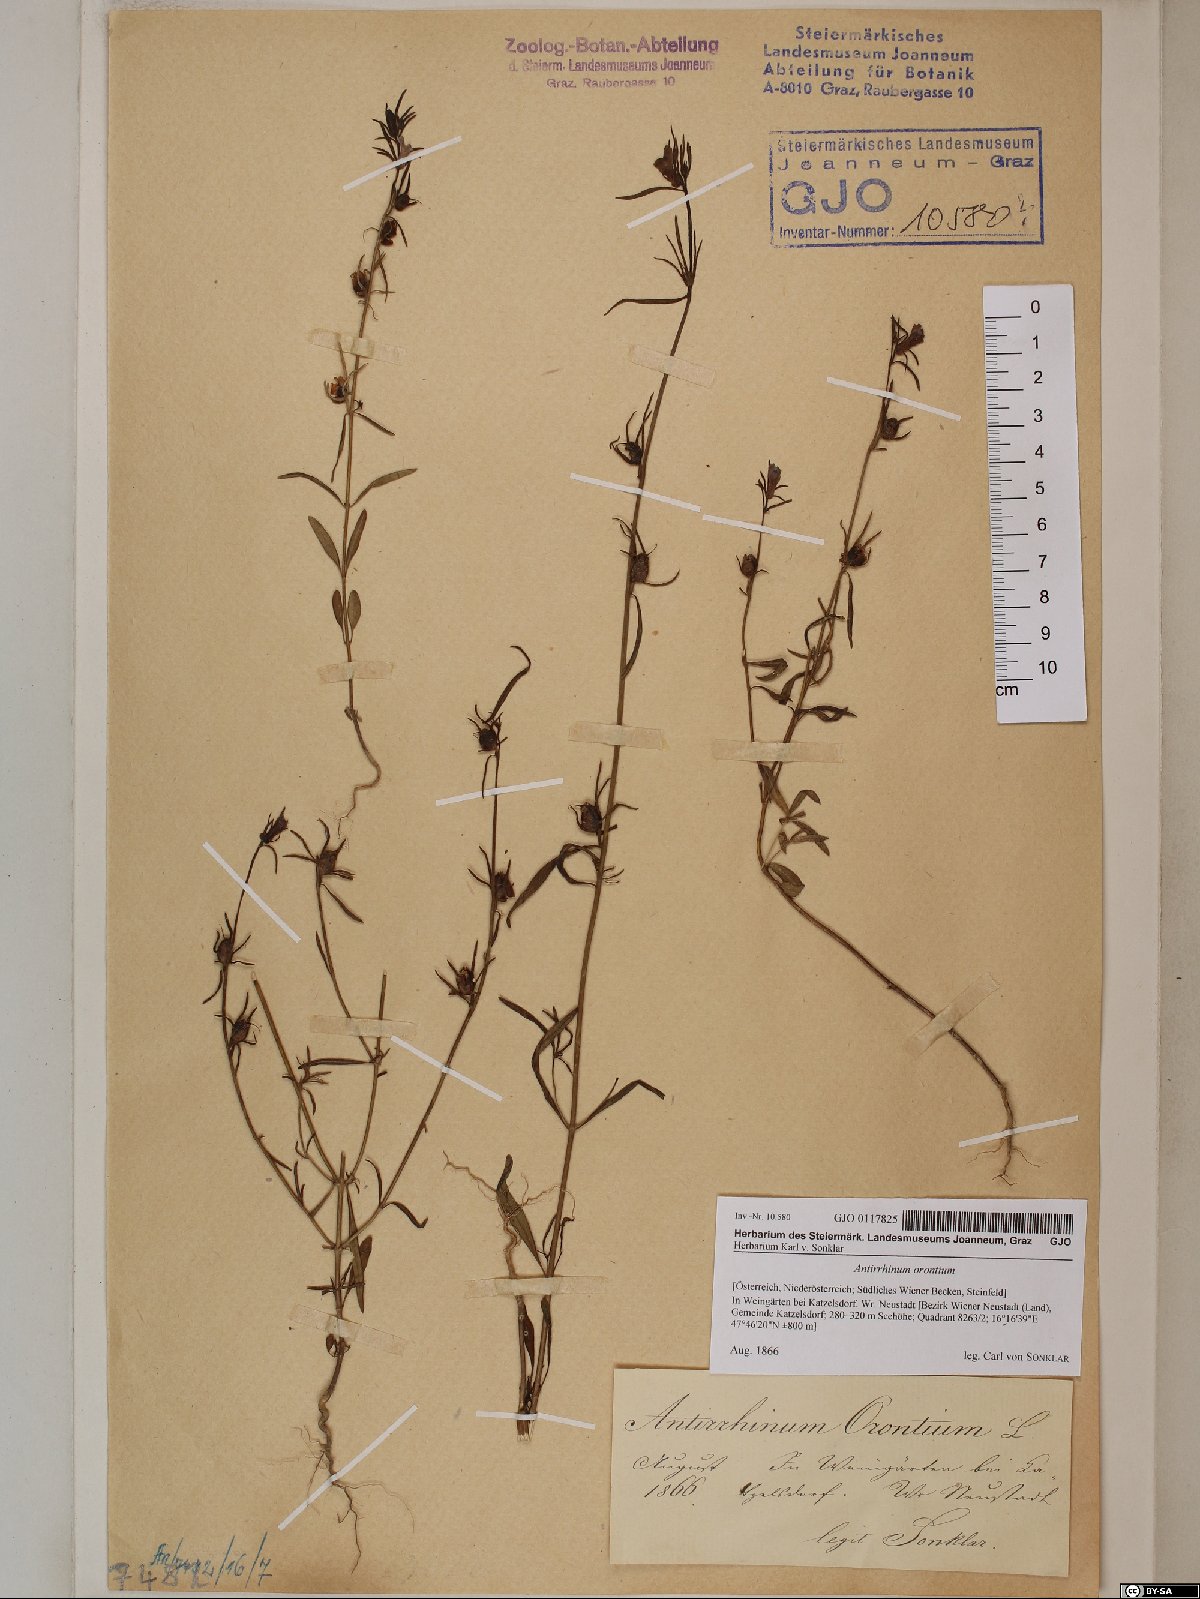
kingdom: Plantae
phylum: Tracheophyta
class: Magnoliopsida
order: Lamiales
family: Plantaginaceae
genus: Misopates
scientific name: Misopates orontium
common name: Weasel's-snout
